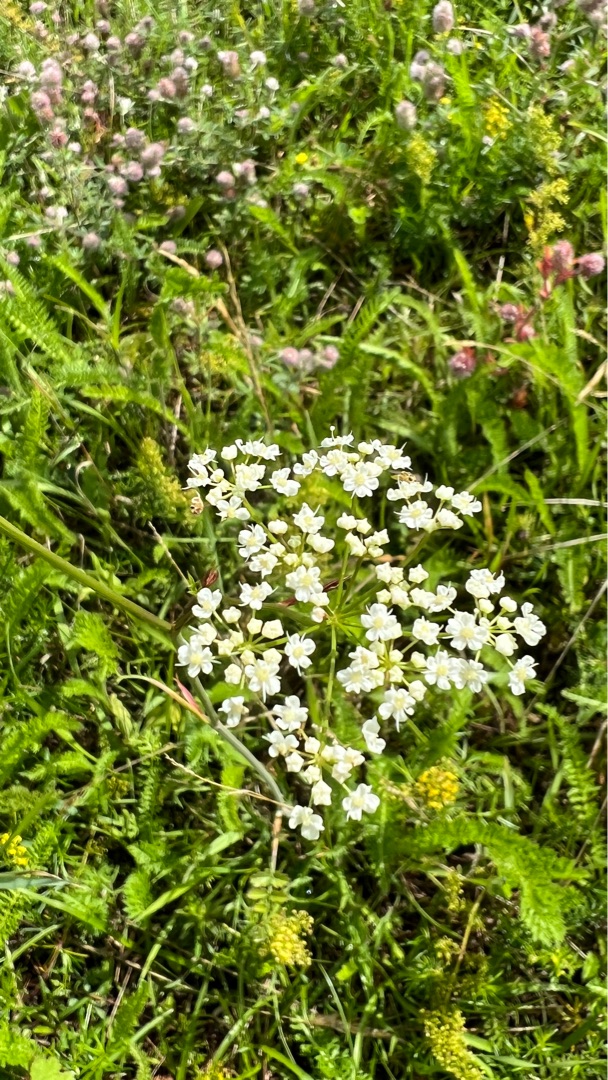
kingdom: Plantae
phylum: Tracheophyta
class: Magnoliopsida
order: Apiales
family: Apiaceae
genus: Pimpinella
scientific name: Pimpinella saxifraga
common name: Almindelig pimpinelle
